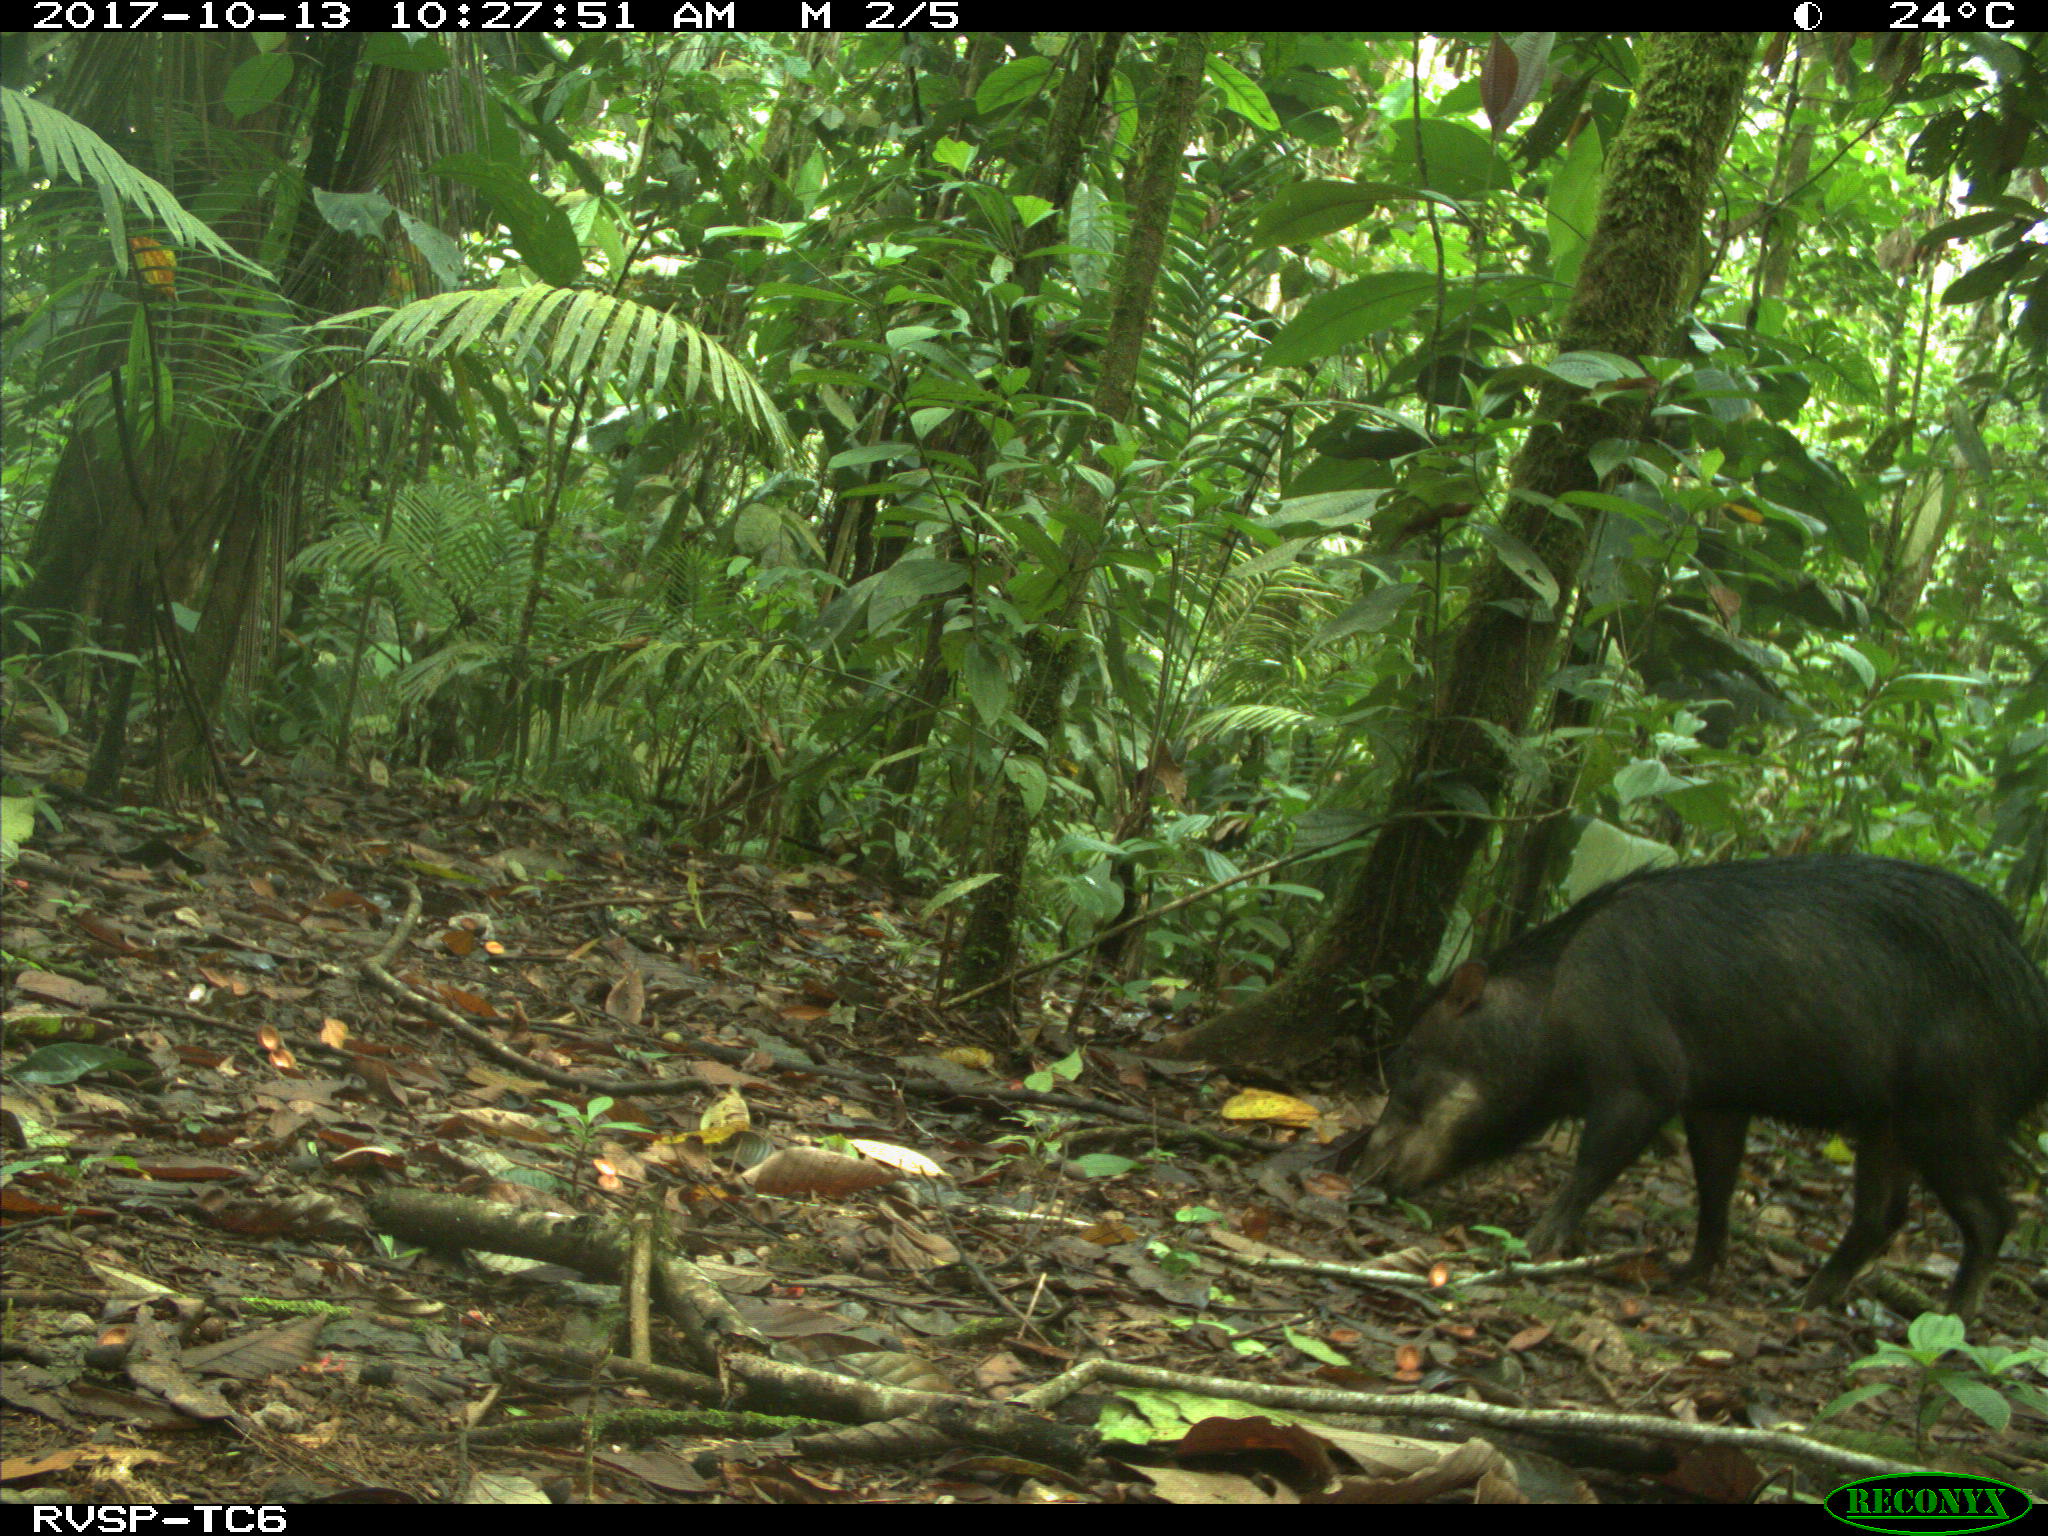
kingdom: Animalia
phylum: Chordata
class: Mammalia
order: Artiodactyla
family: Tayassuidae
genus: Tayassu
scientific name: Tayassu pecari
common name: White-lipped peccary
